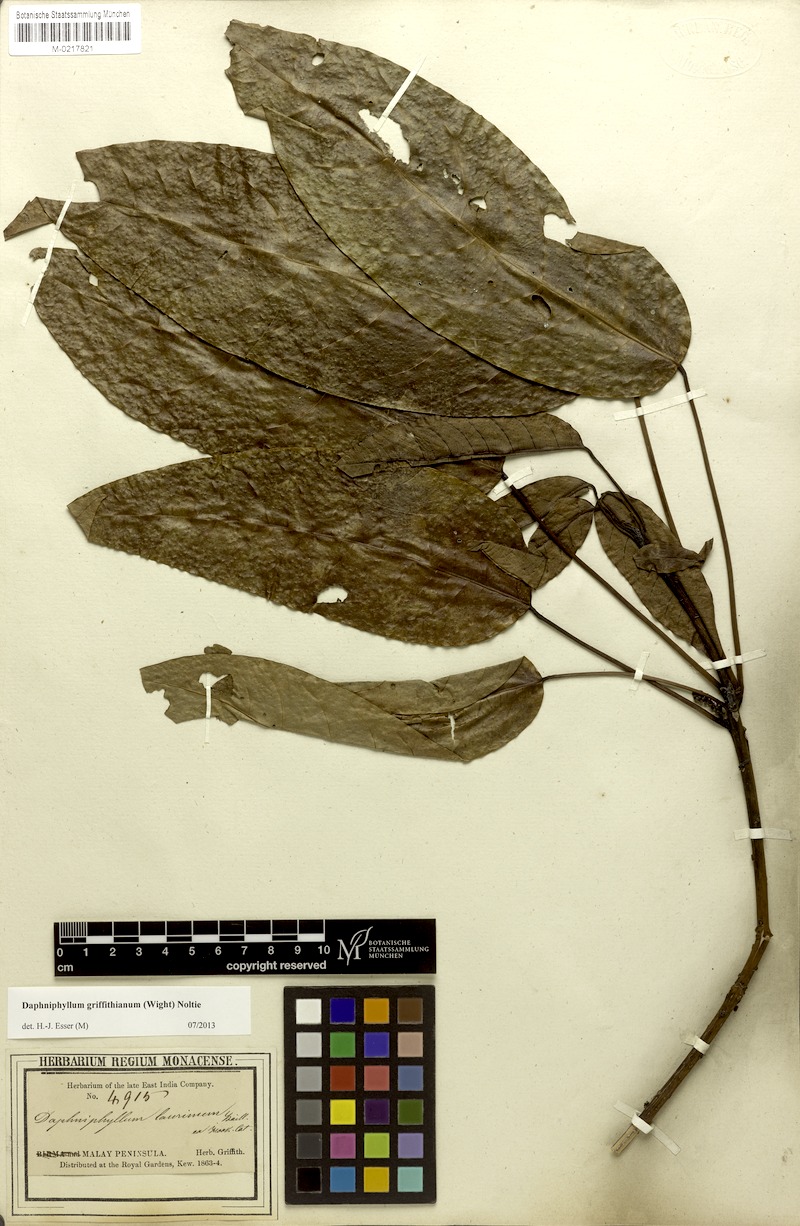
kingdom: Plantae
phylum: Tracheophyta
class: Magnoliopsida
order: Saxifragales
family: Daphniphyllaceae
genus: Daphniphyllum
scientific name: Daphniphyllum griffithianum
